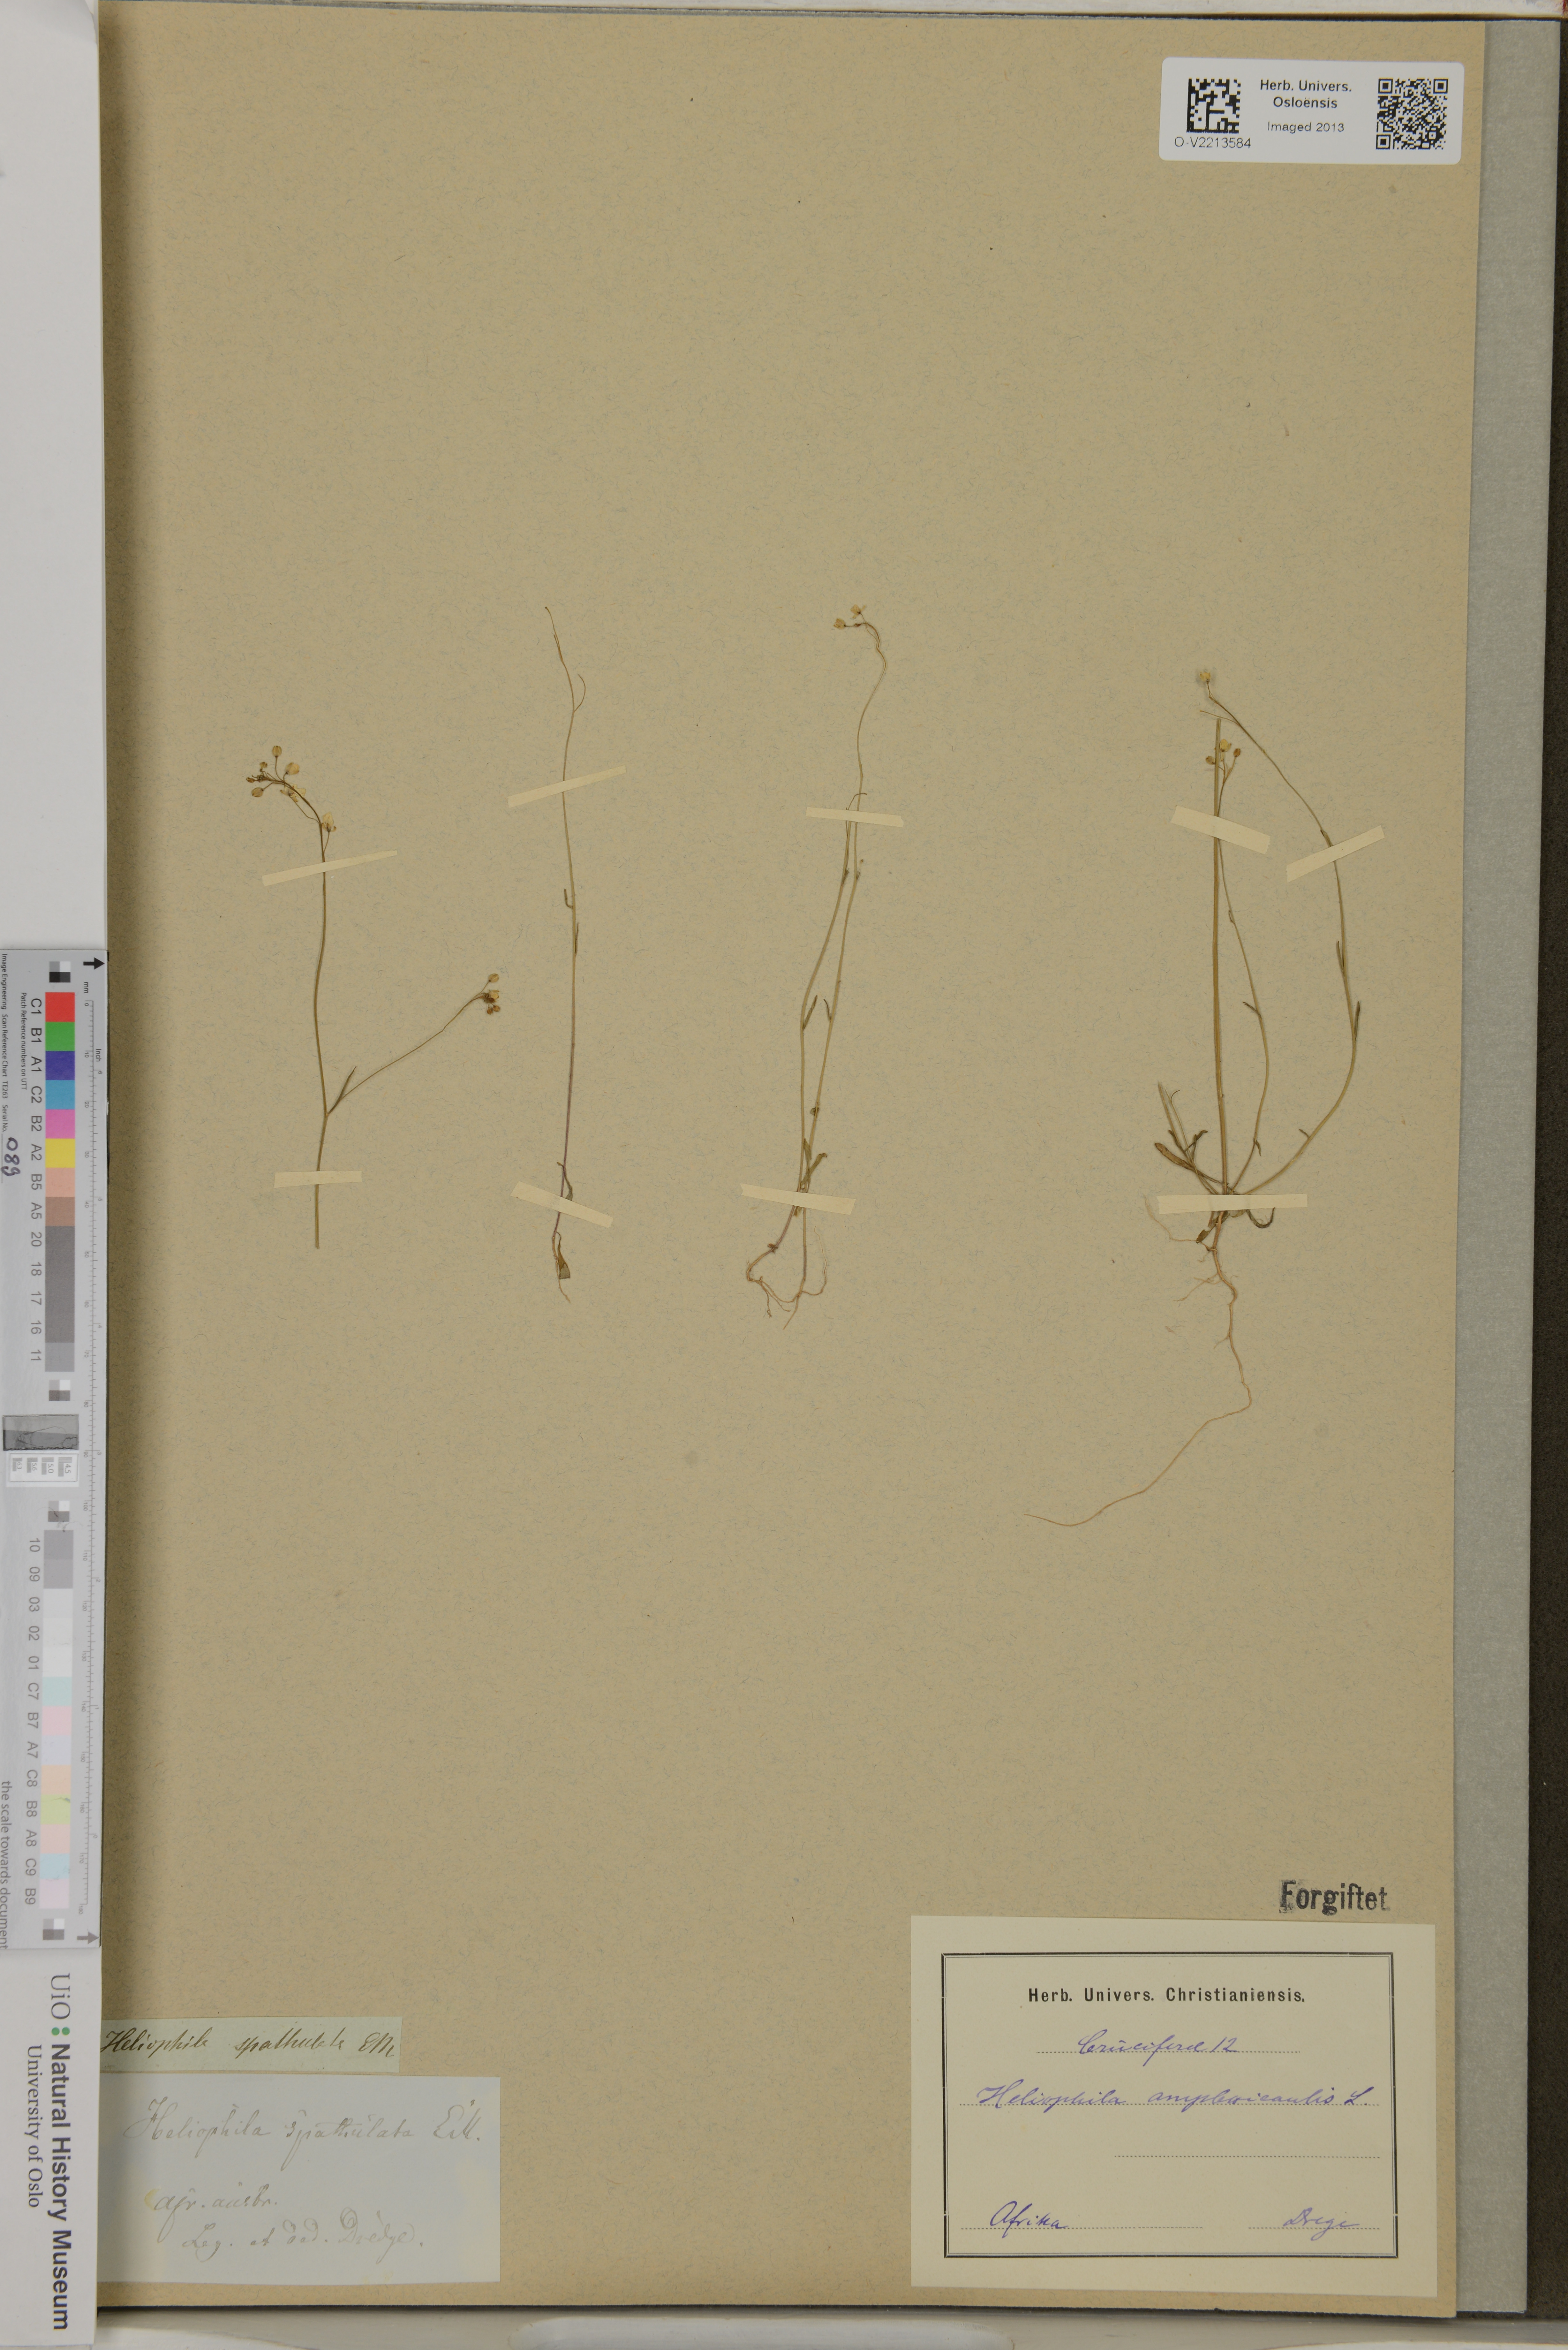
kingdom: Plantae
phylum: Tracheophyta
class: Magnoliopsida
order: Brassicales
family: Brassicaceae
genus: Heliophila
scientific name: Heliophila amplexicaulis
